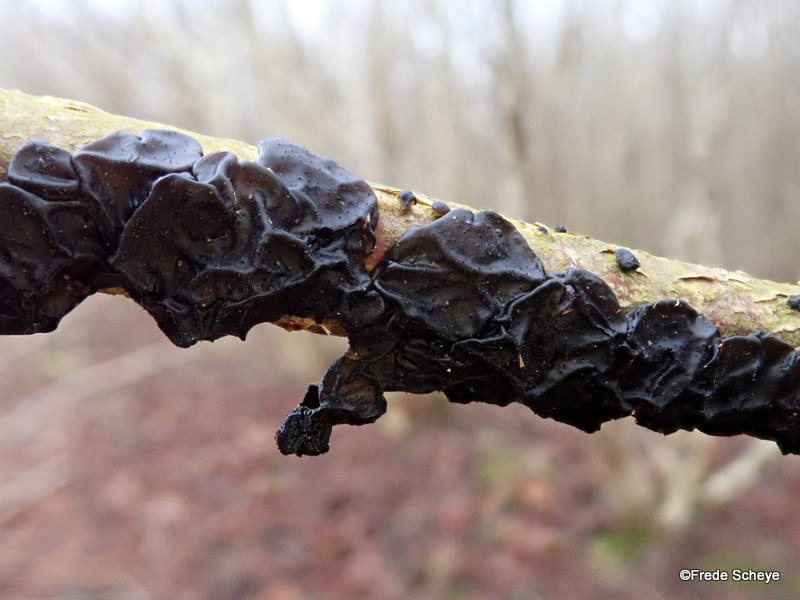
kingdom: Fungi
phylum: Basidiomycota
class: Agaricomycetes
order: Auriculariales
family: Auriculariaceae
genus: Exidia
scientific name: Exidia glandulosa
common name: ege-bævretop
